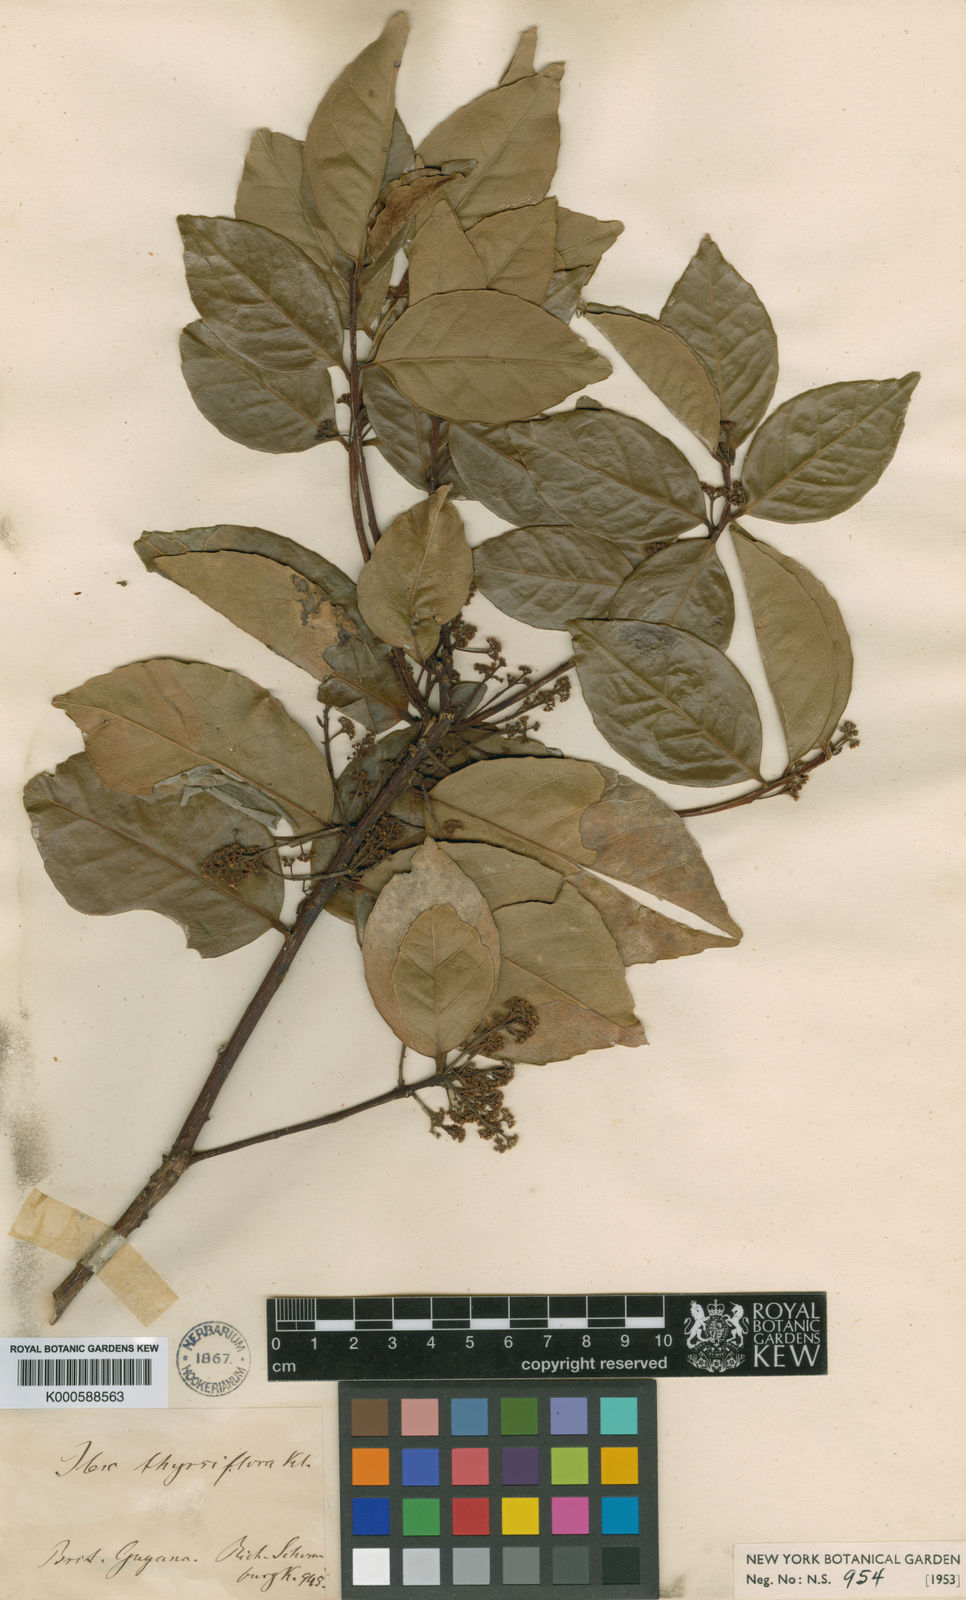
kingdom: Plantae
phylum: Tracheophyta
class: Magnoliopsida
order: Aquifoliales
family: Aquifoliaceae
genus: Ilex
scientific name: Ilex
